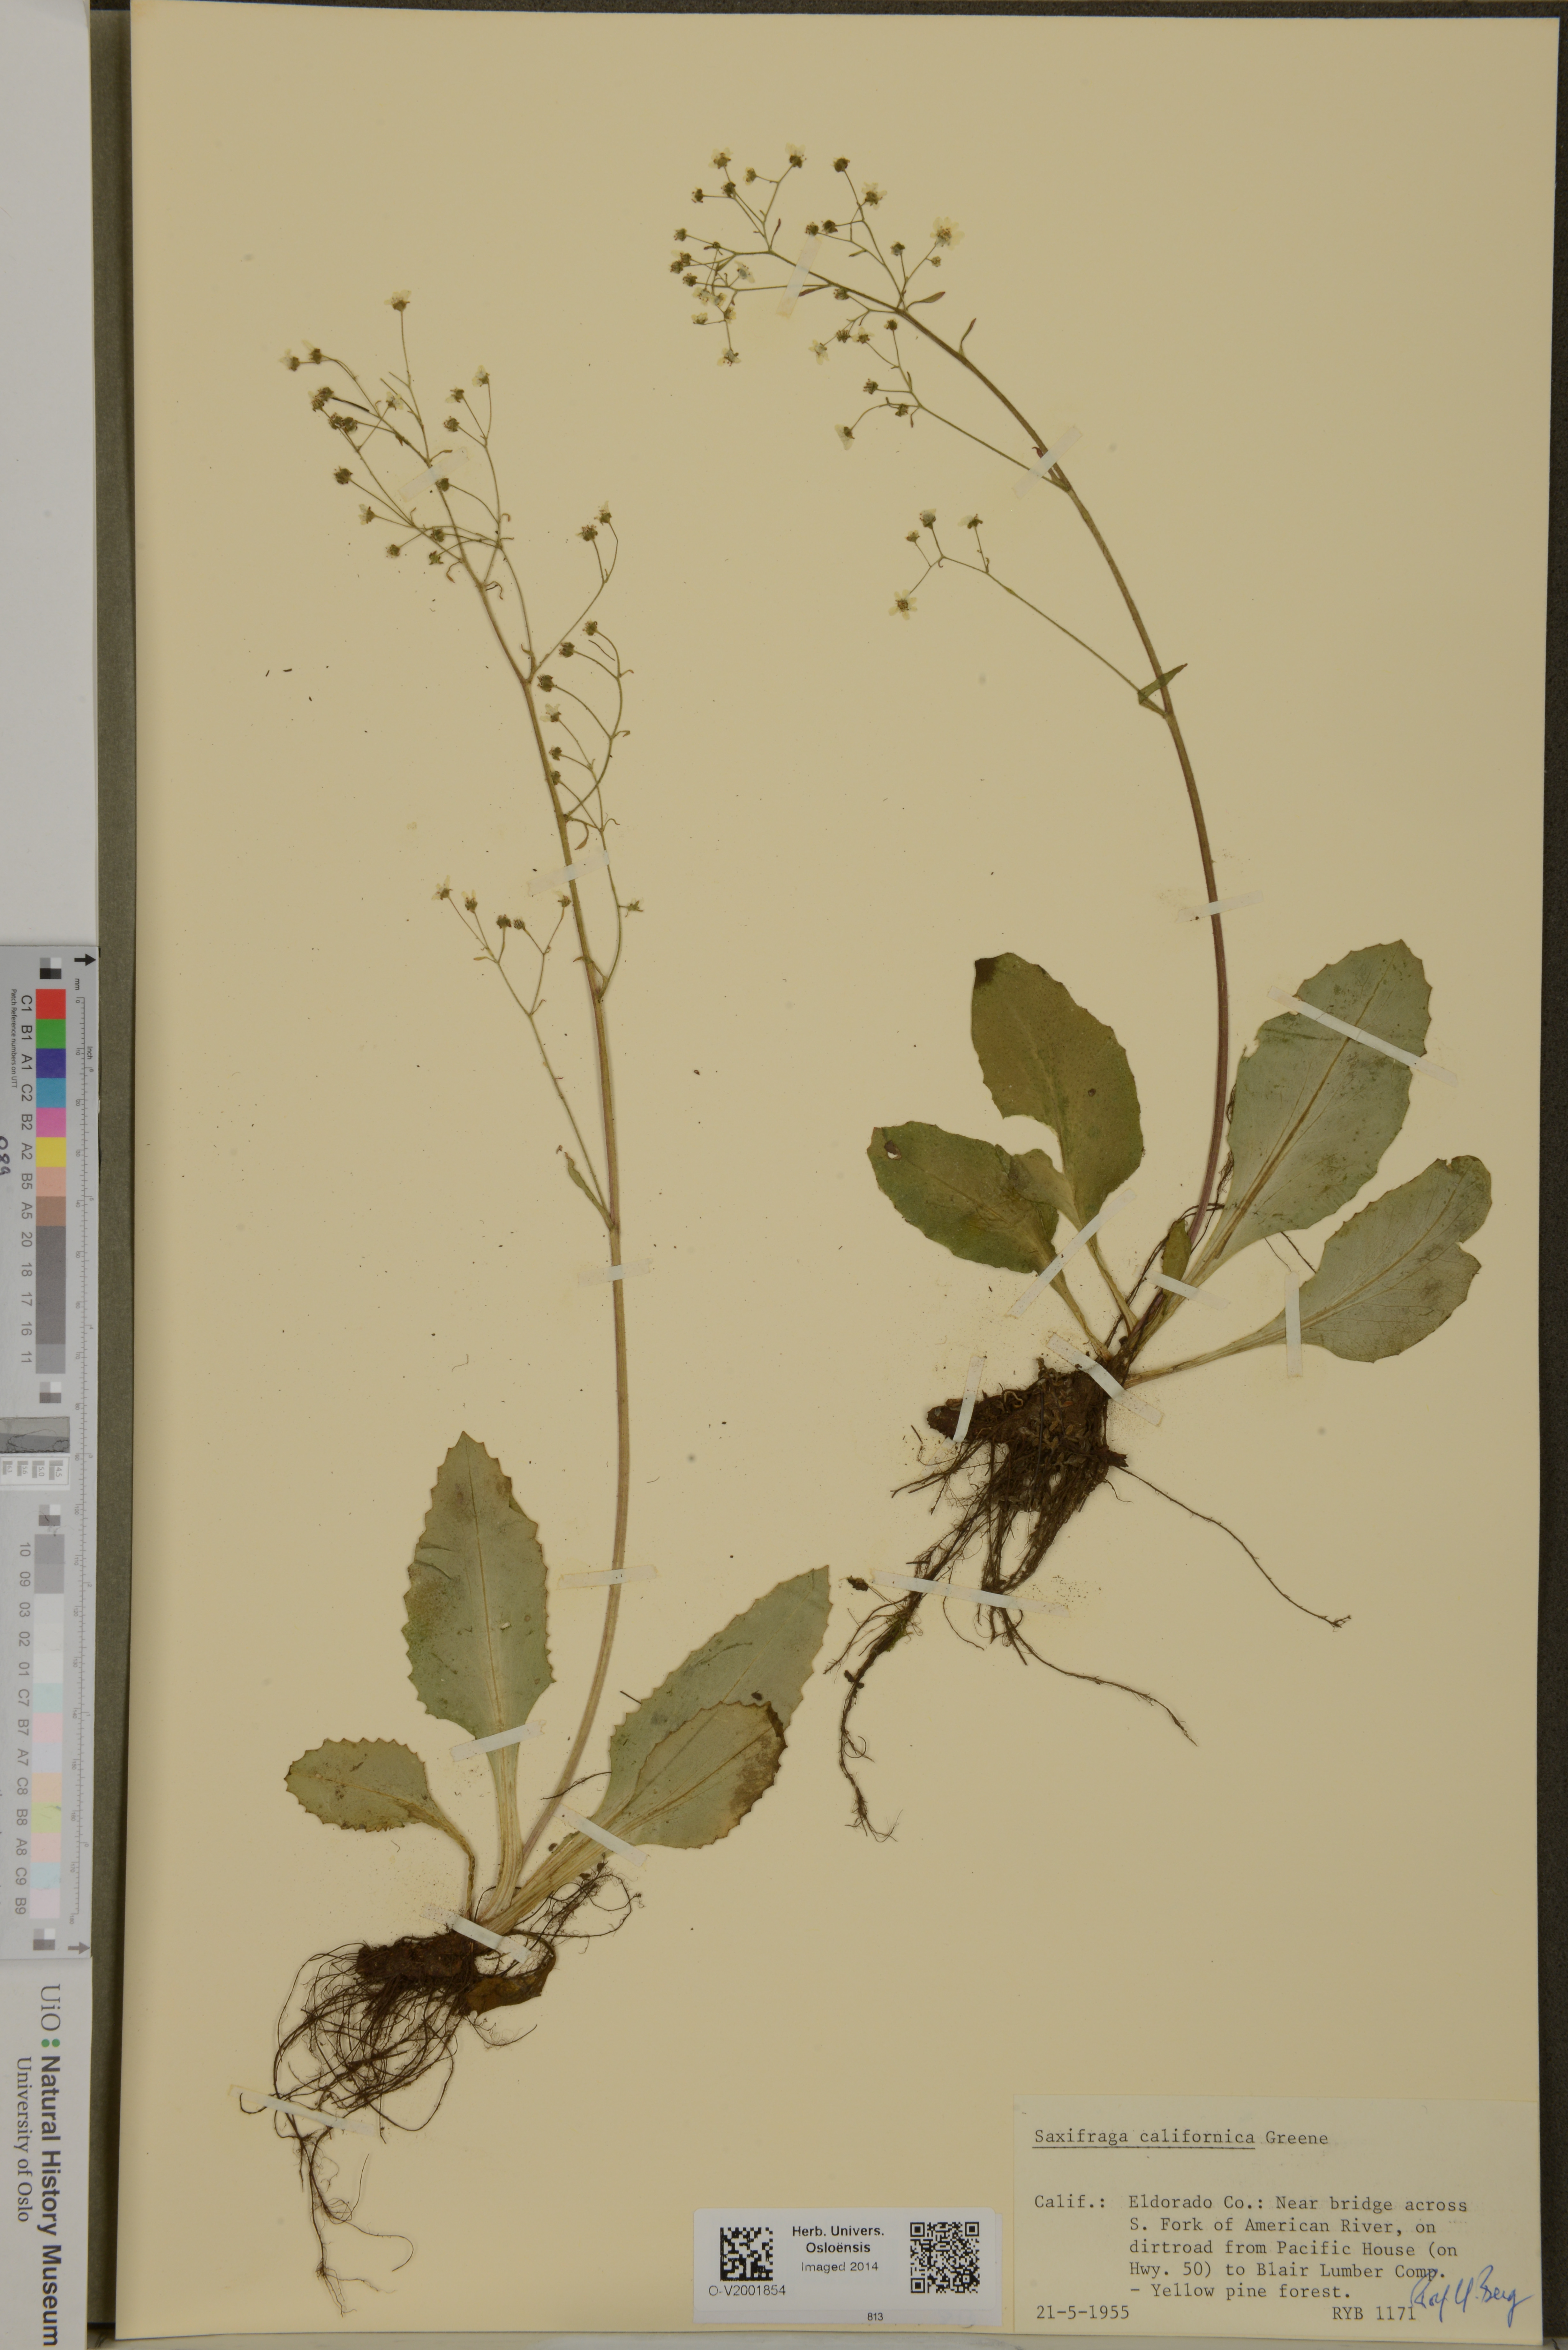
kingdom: Plantae
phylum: Tracheophyta
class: Magnoliopsida
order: Saxifragales
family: Saxifragaceae
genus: Micranthes
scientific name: Micranthes californica
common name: California saxifrage
